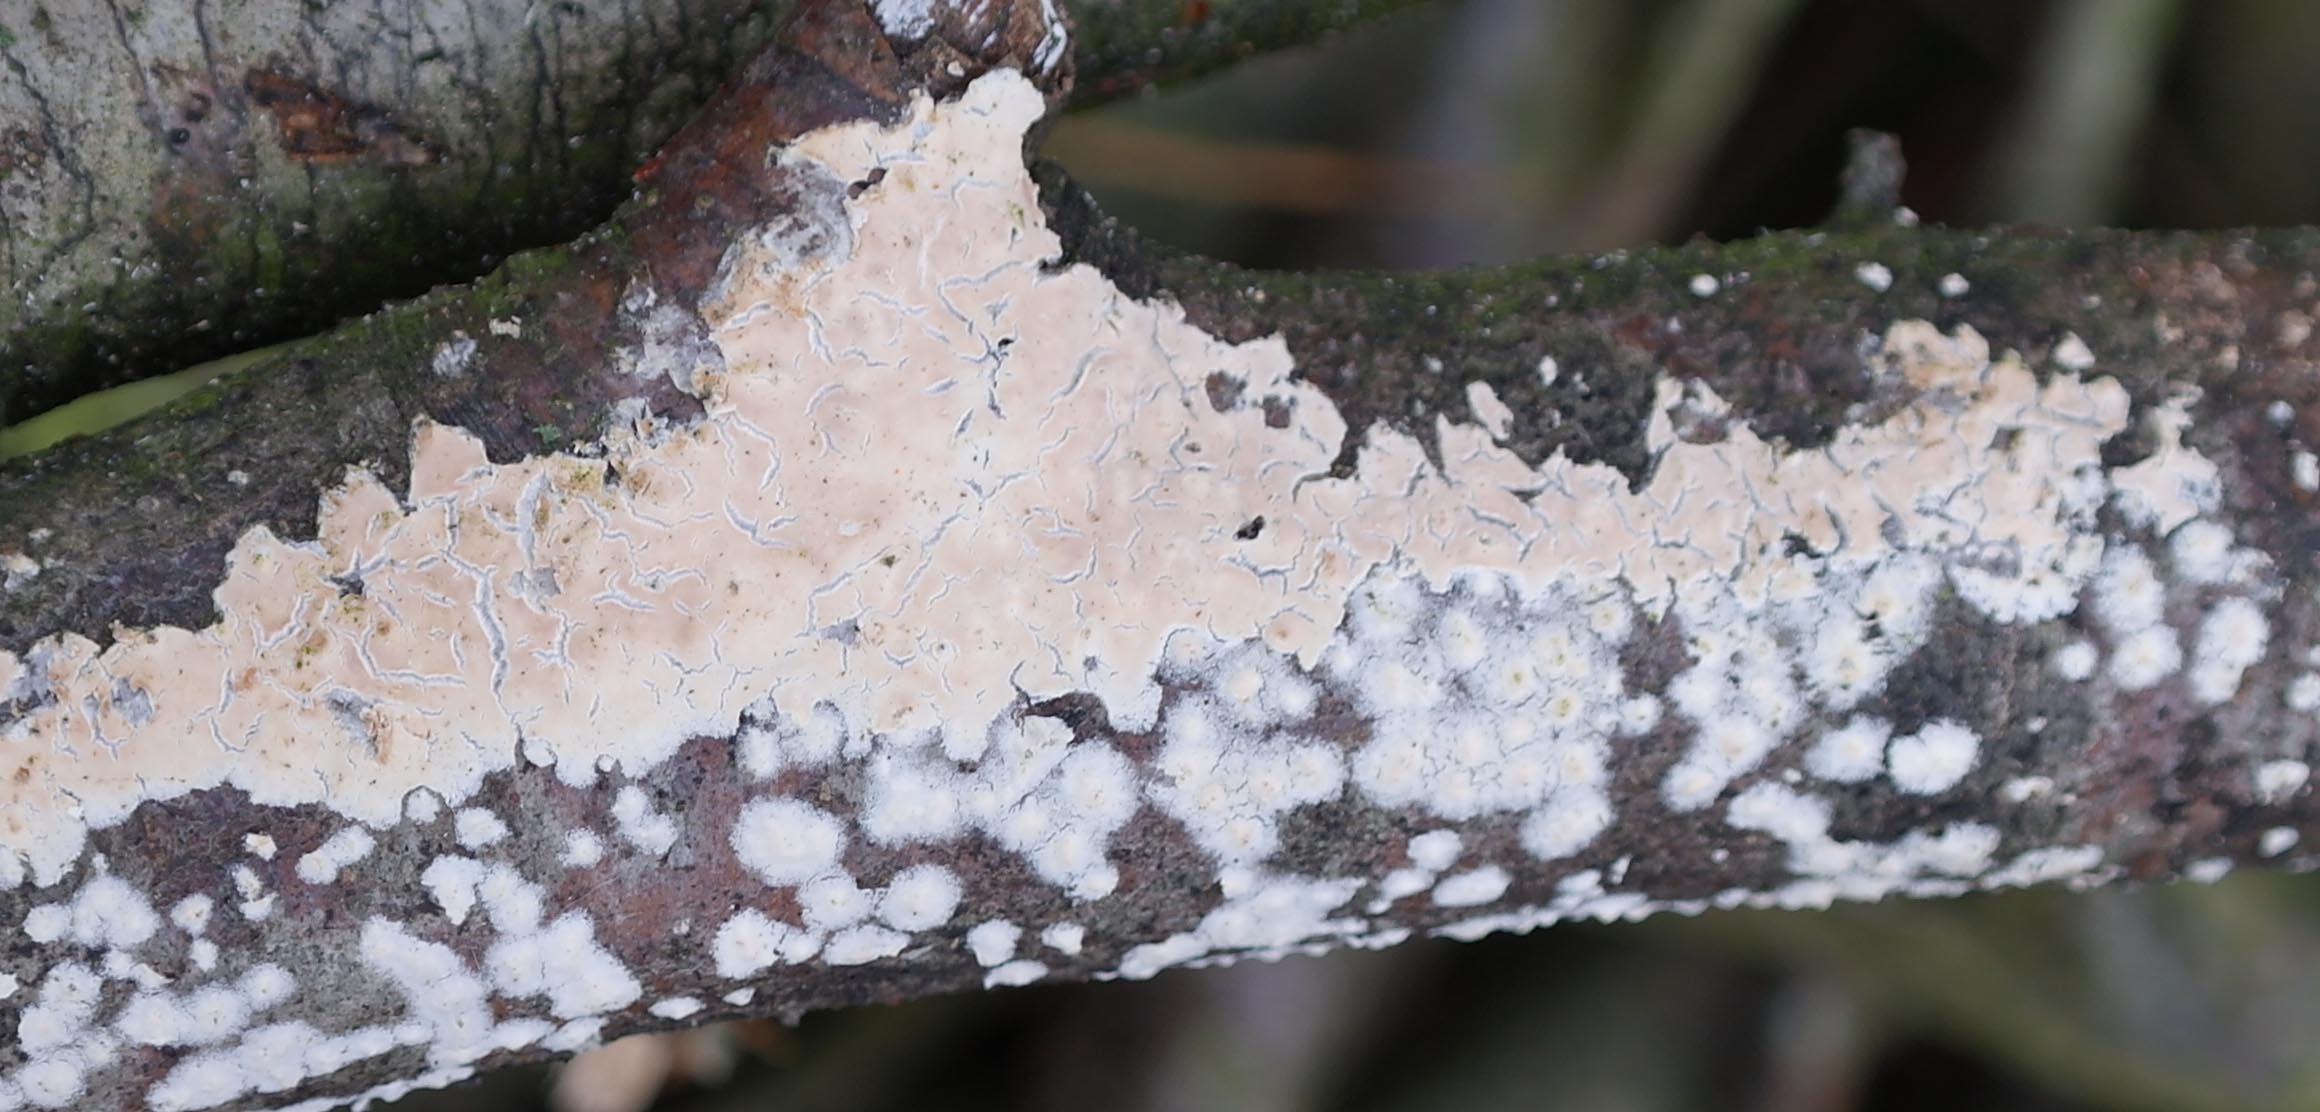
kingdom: Fungi
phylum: Basidiomycota
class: Agaricomycetes
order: Agaricales
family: Physalacriaceae
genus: Cylindrobasidium
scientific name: Cylindrobasidium evolvens
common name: sprækkehinde
